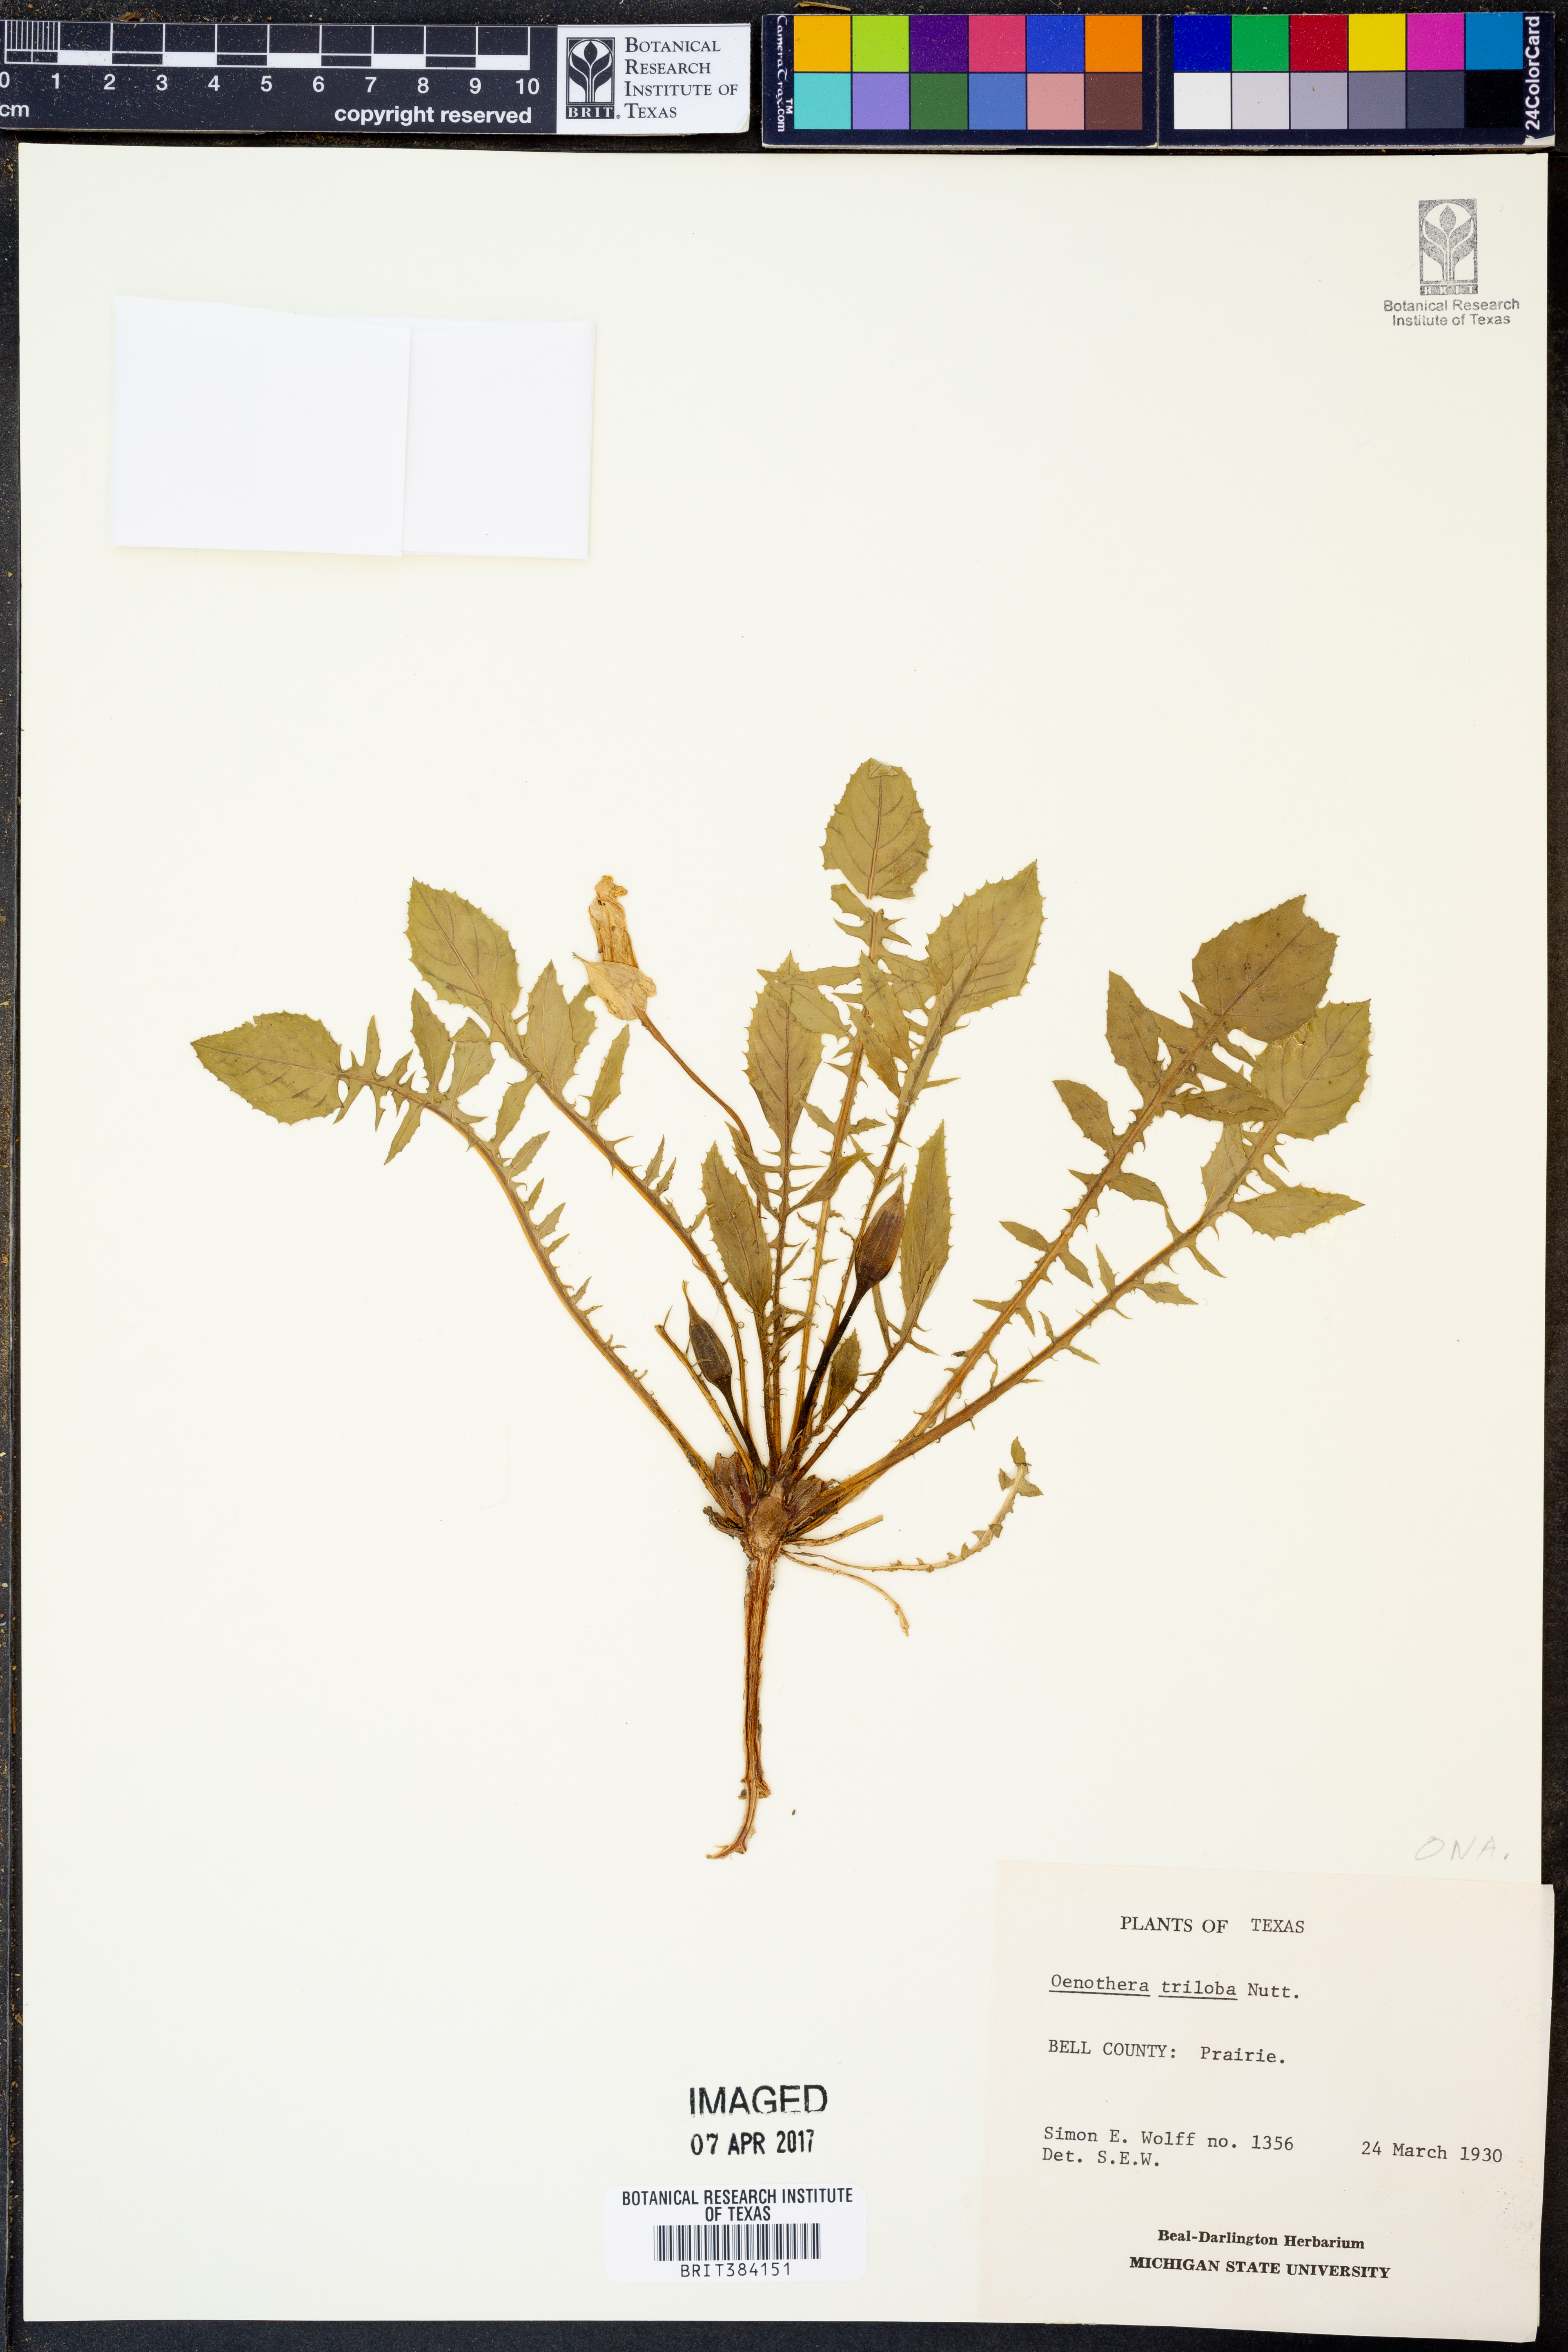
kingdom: Plantae
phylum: Tracheophyta
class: Magnoliopsida
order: Myrtales
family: Onagraceae
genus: Oenothera
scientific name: Oenothera triloba
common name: Sessile evening-primrose
